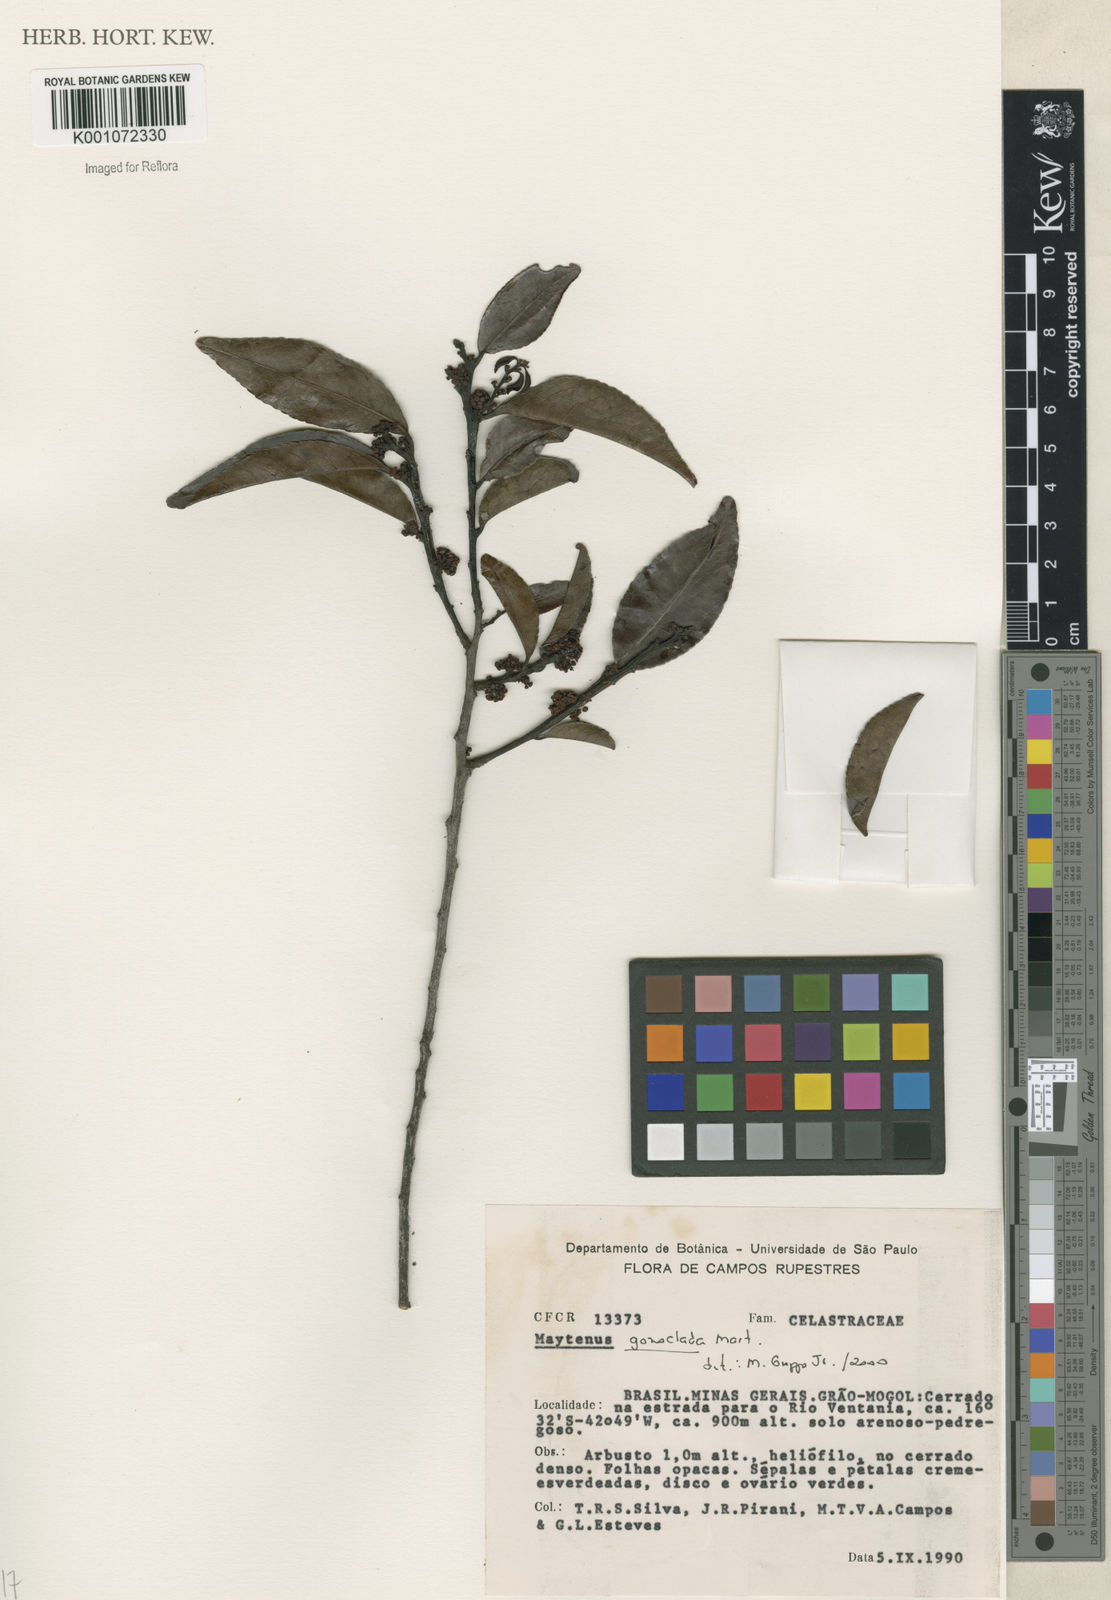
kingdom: Plantae
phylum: Tracheophyta
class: Magnoliopsida
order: Celastrales
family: Celastraceae
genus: Maytenus
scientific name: Maytenus
